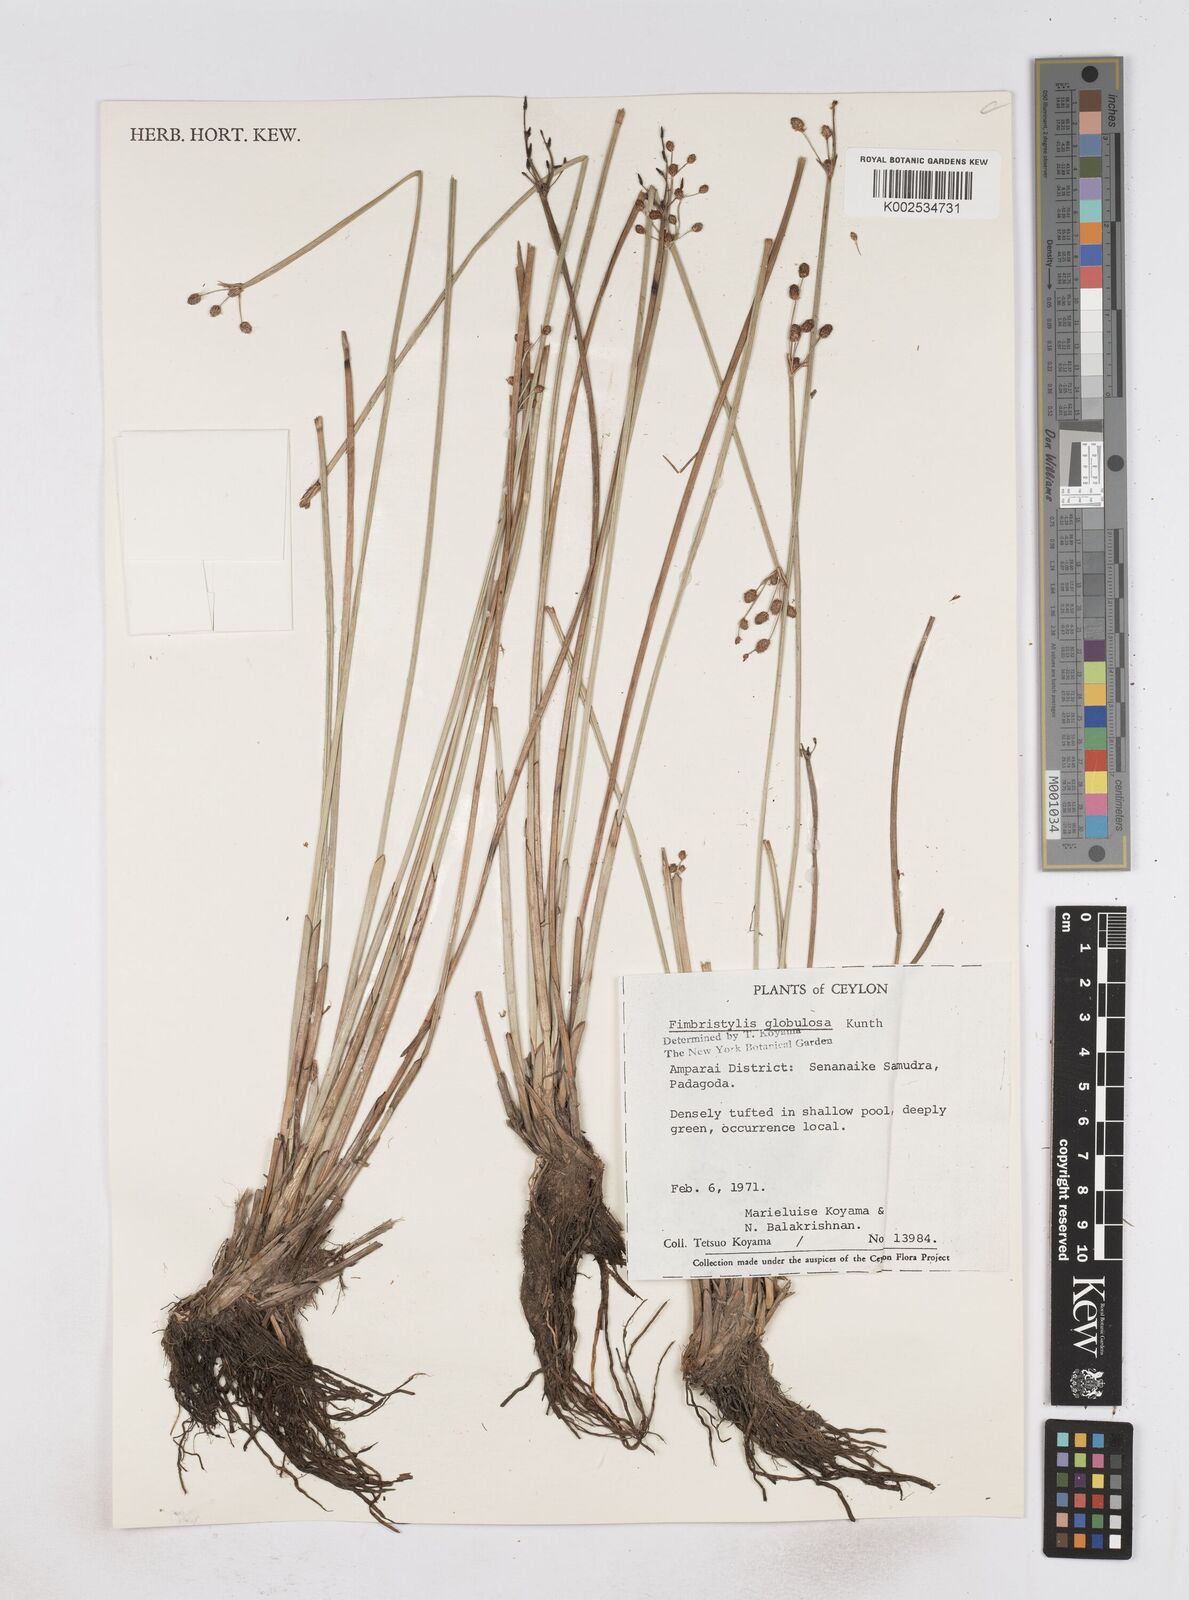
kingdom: Plantae
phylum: Tracheophyta
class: Liliopsida
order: Poales
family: Cyperaceae
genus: Fimbristylis
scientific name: Fimbristylis umbellaris
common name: Globular fimbristylis
